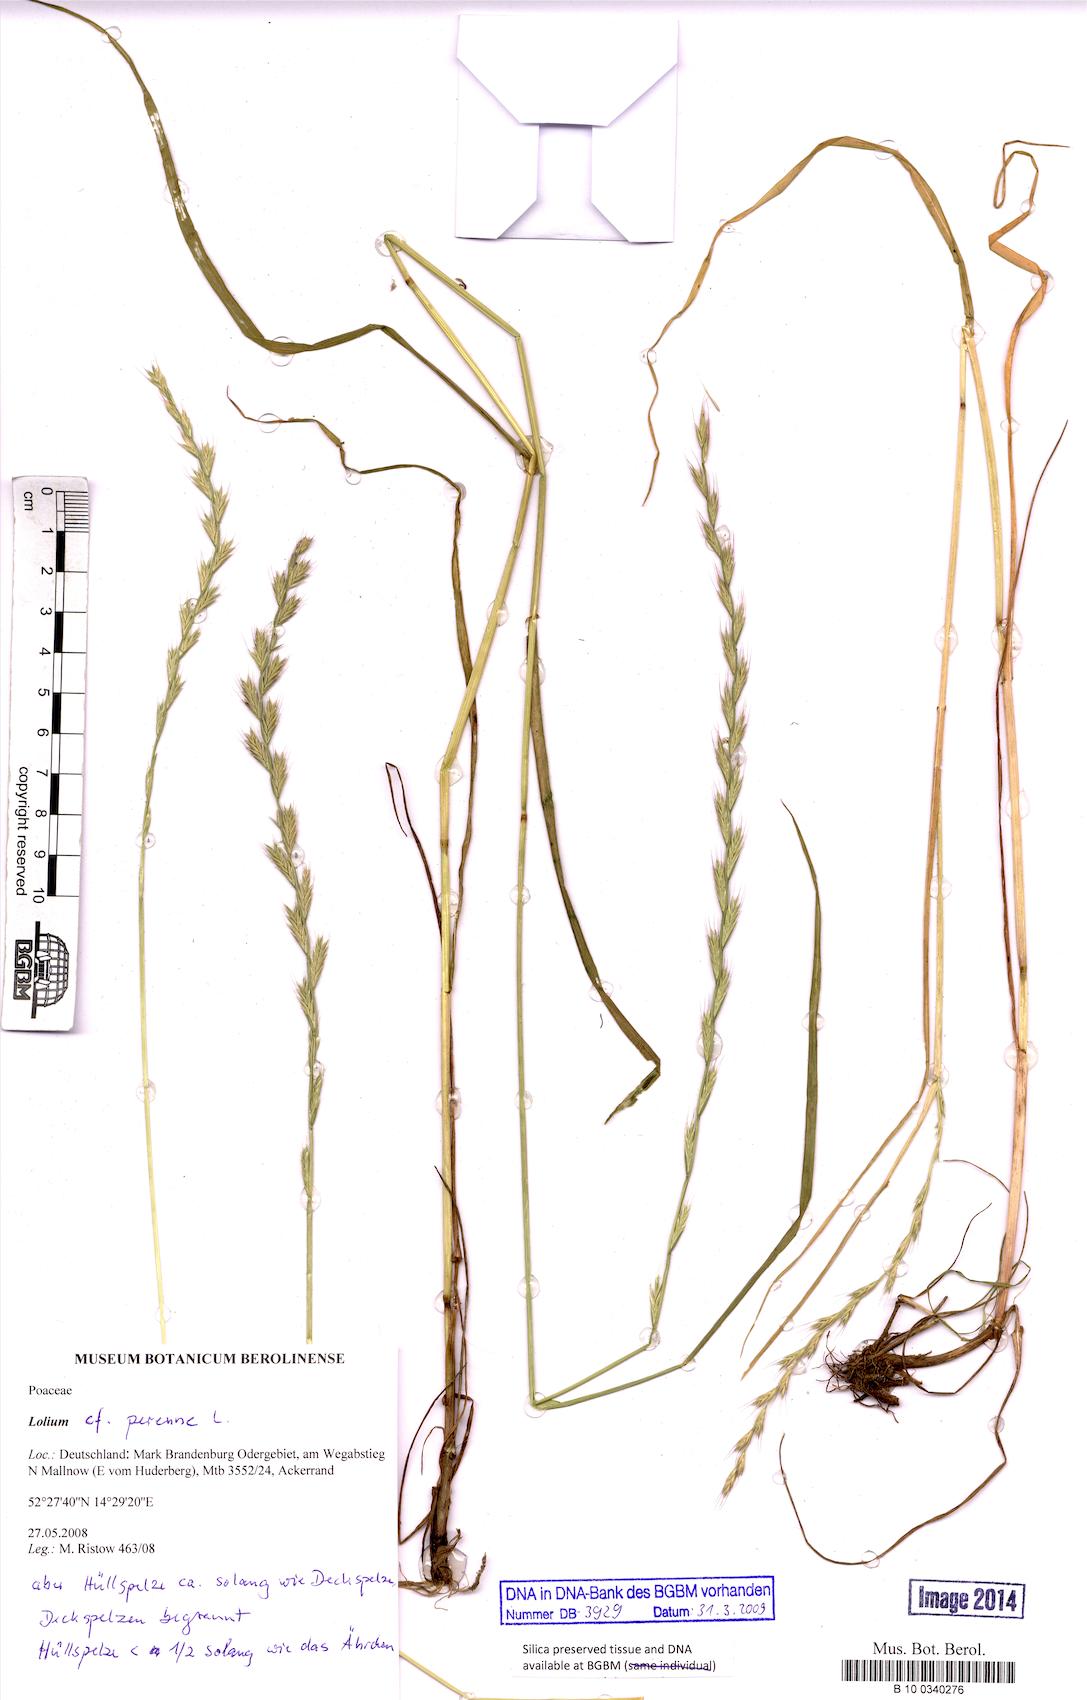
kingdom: Plantae
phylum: Tracheophyta
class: Liliopsida
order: Poales
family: Poaceae
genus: Lolium
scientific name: Lolium perenne
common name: Perennial ryegrass
